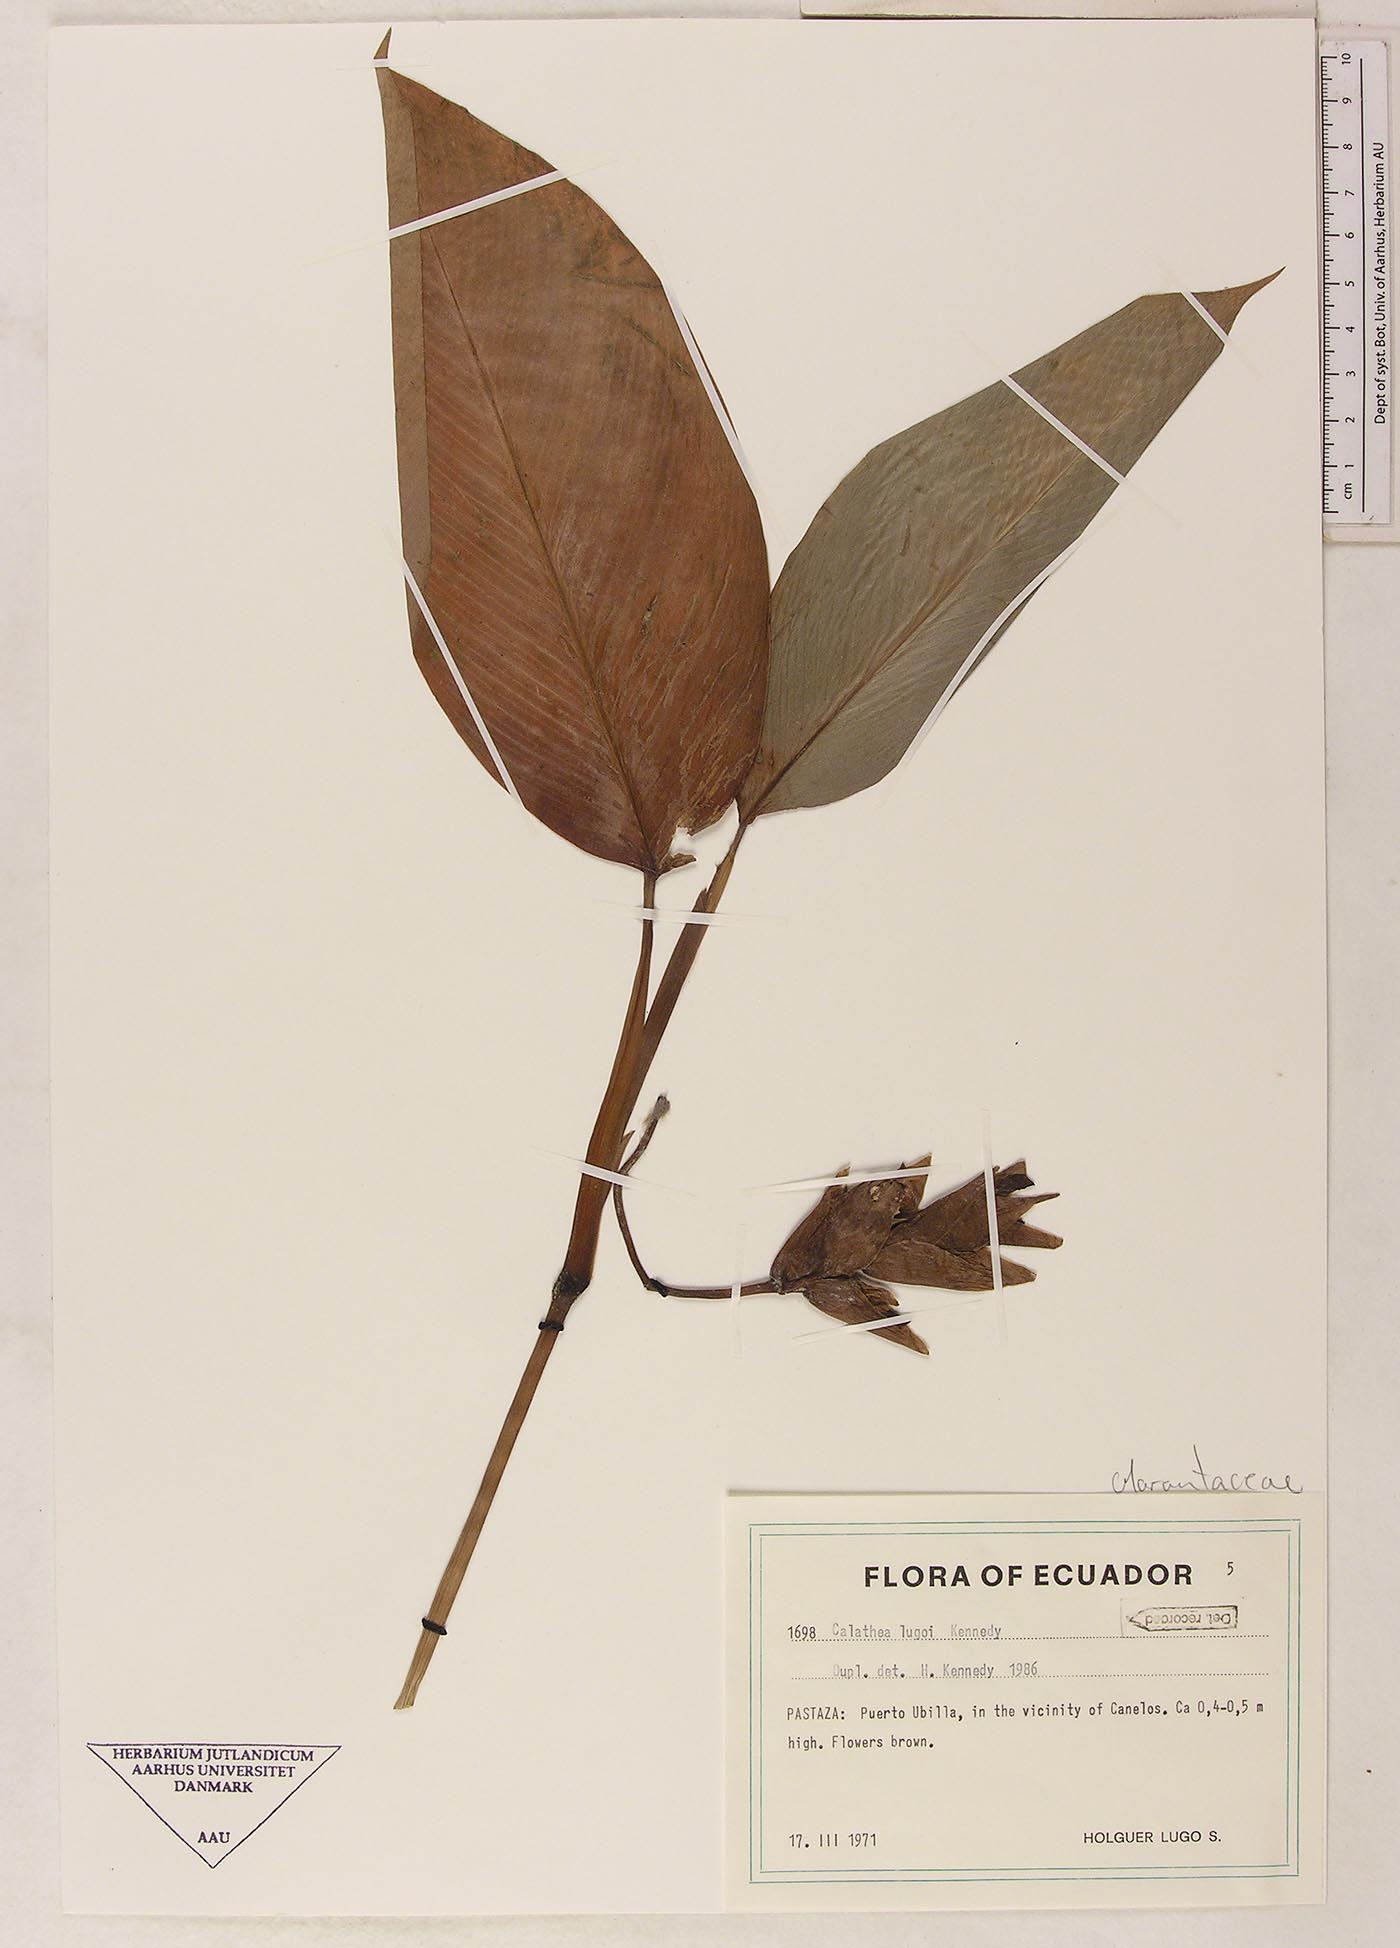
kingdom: Plantae
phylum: Tracheophyta
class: Magnoliopsida
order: Laurales
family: Lauraceae
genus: Goeppertia
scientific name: Goeppertia
